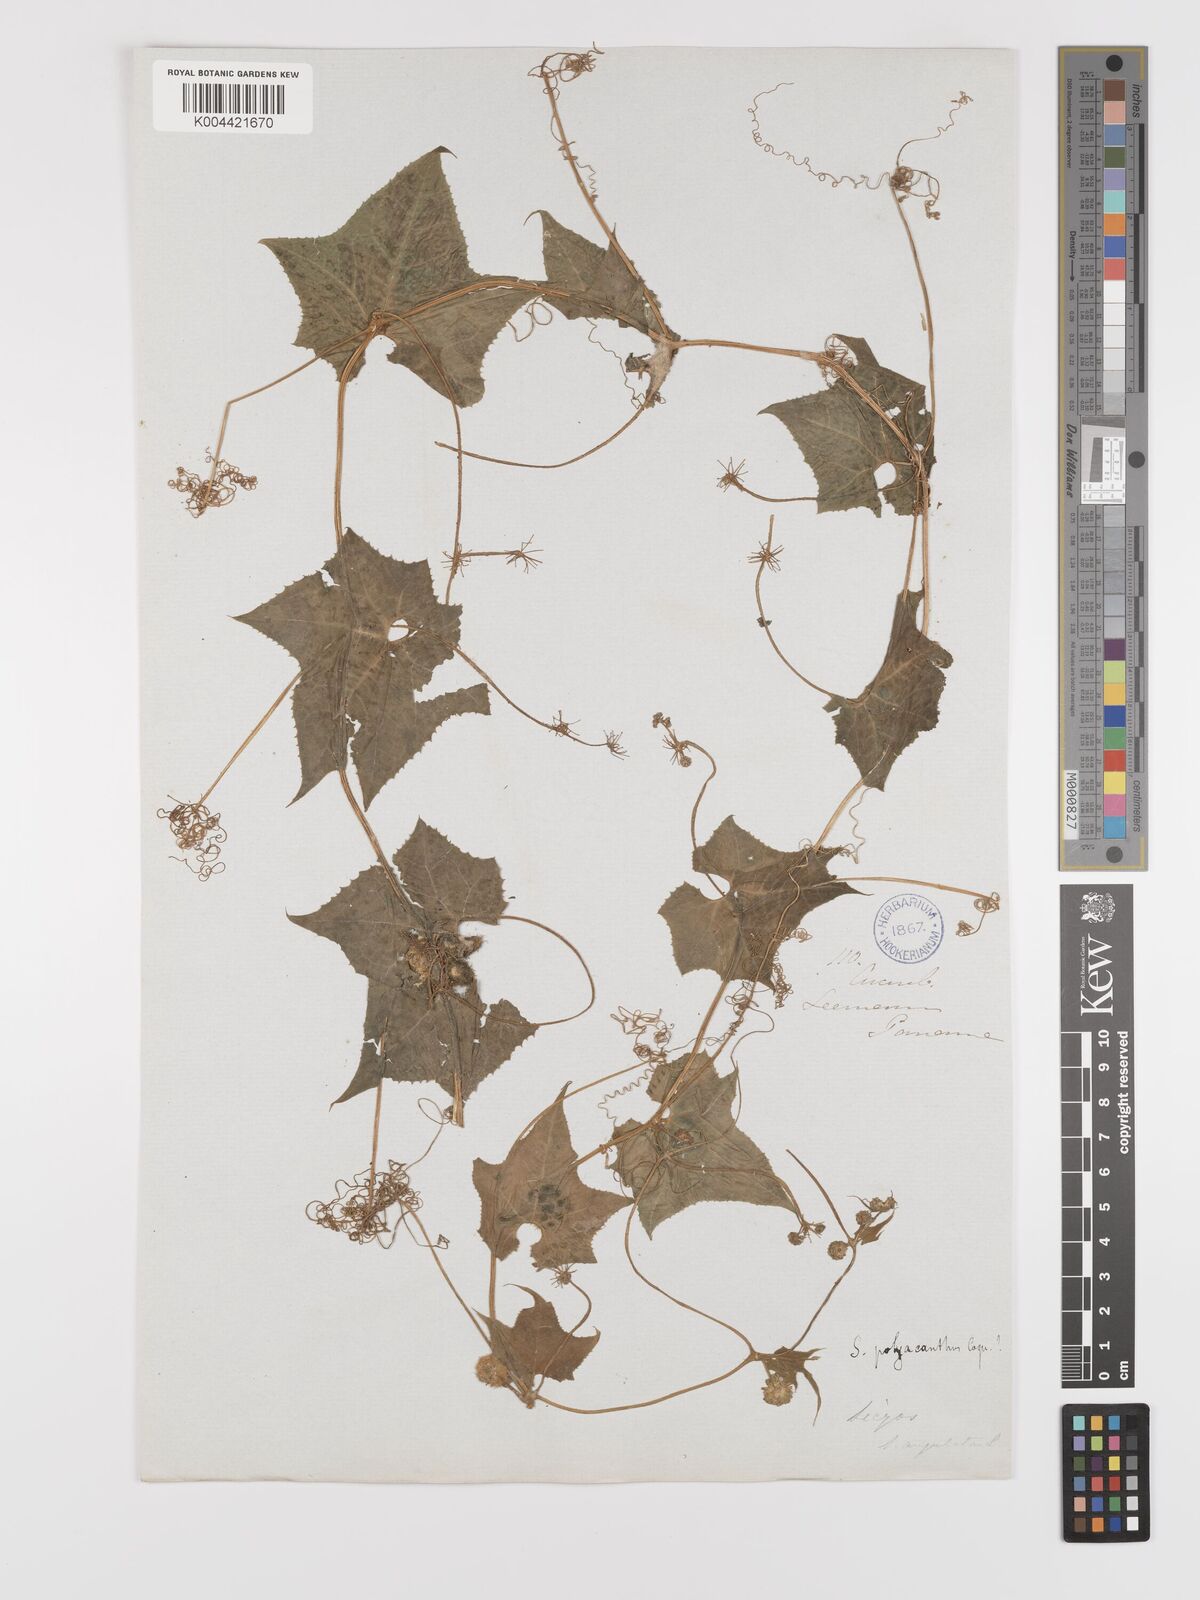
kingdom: Plantae
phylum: Tracheophyta
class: Magnoliopsida
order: Cucurbitales
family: Cucurbitaceae
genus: Sicyos
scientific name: Sicyos polyacanthos
